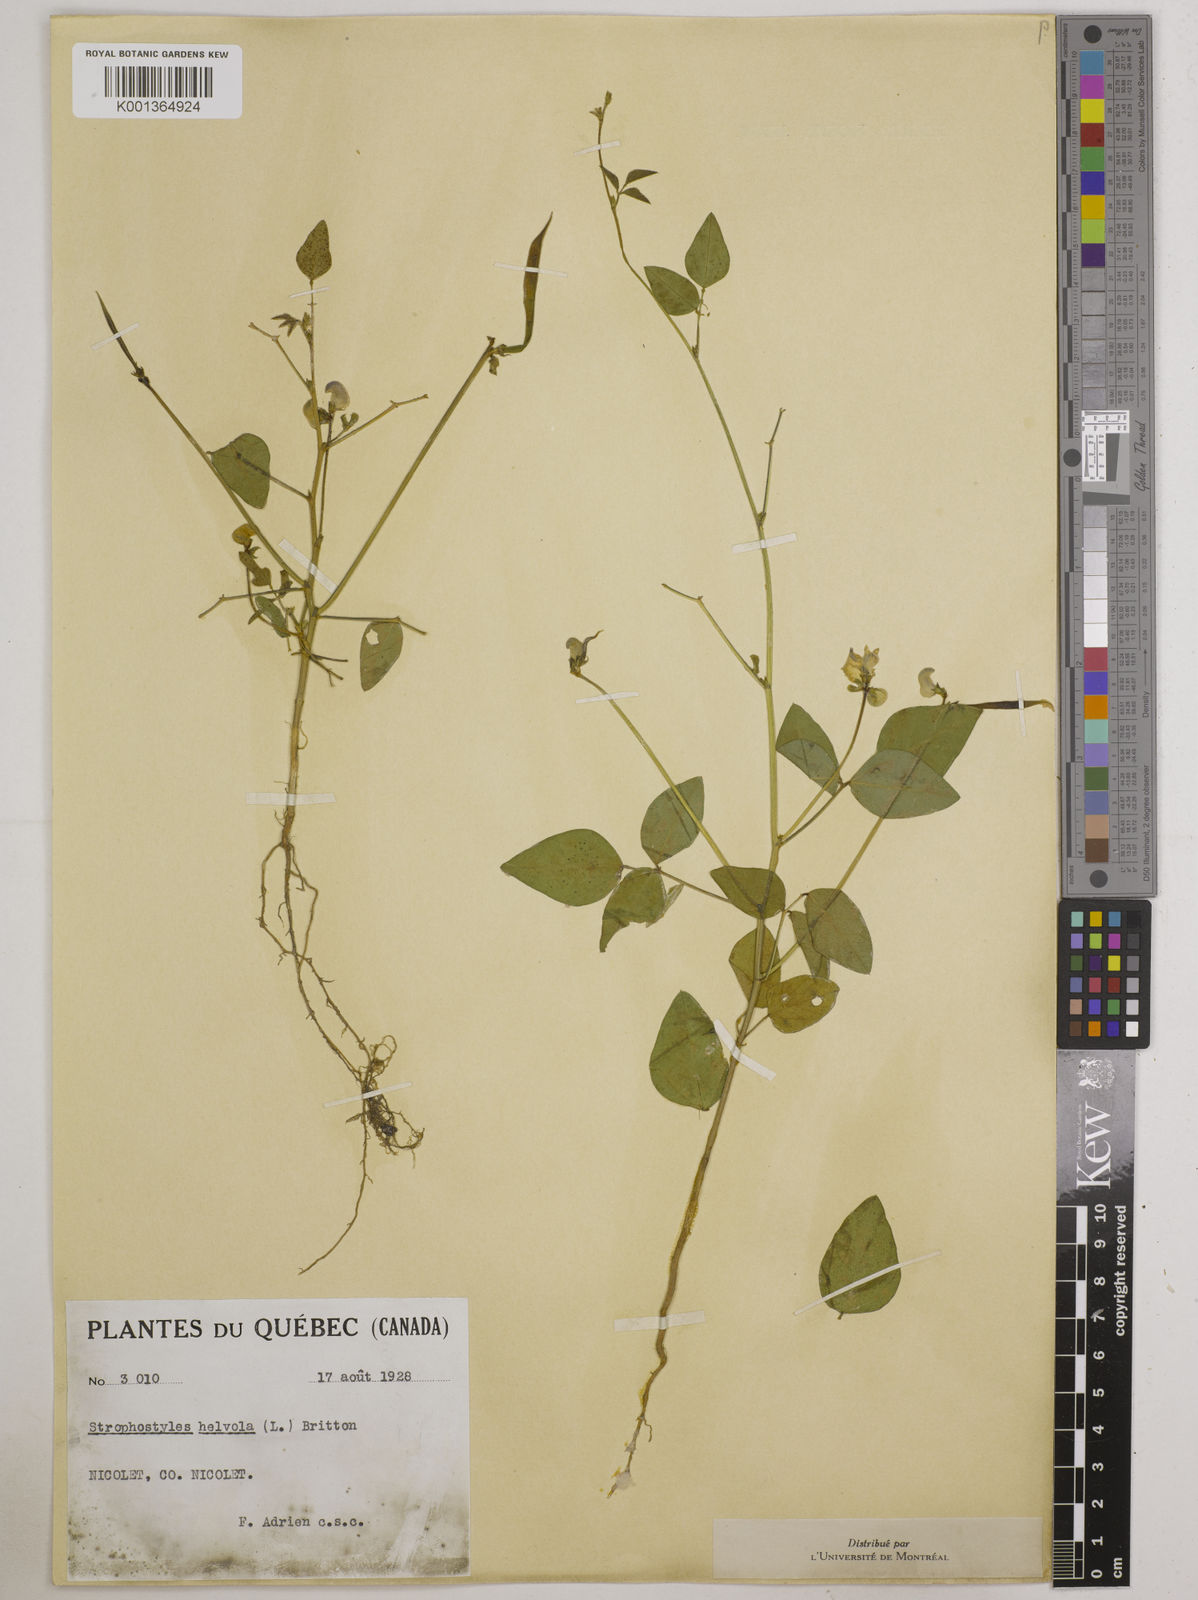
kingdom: Plantae
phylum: Tracheophyta
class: Magnoliopsida
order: Fabales
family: Fabaceae
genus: Strophostyles
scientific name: Strophostyles
